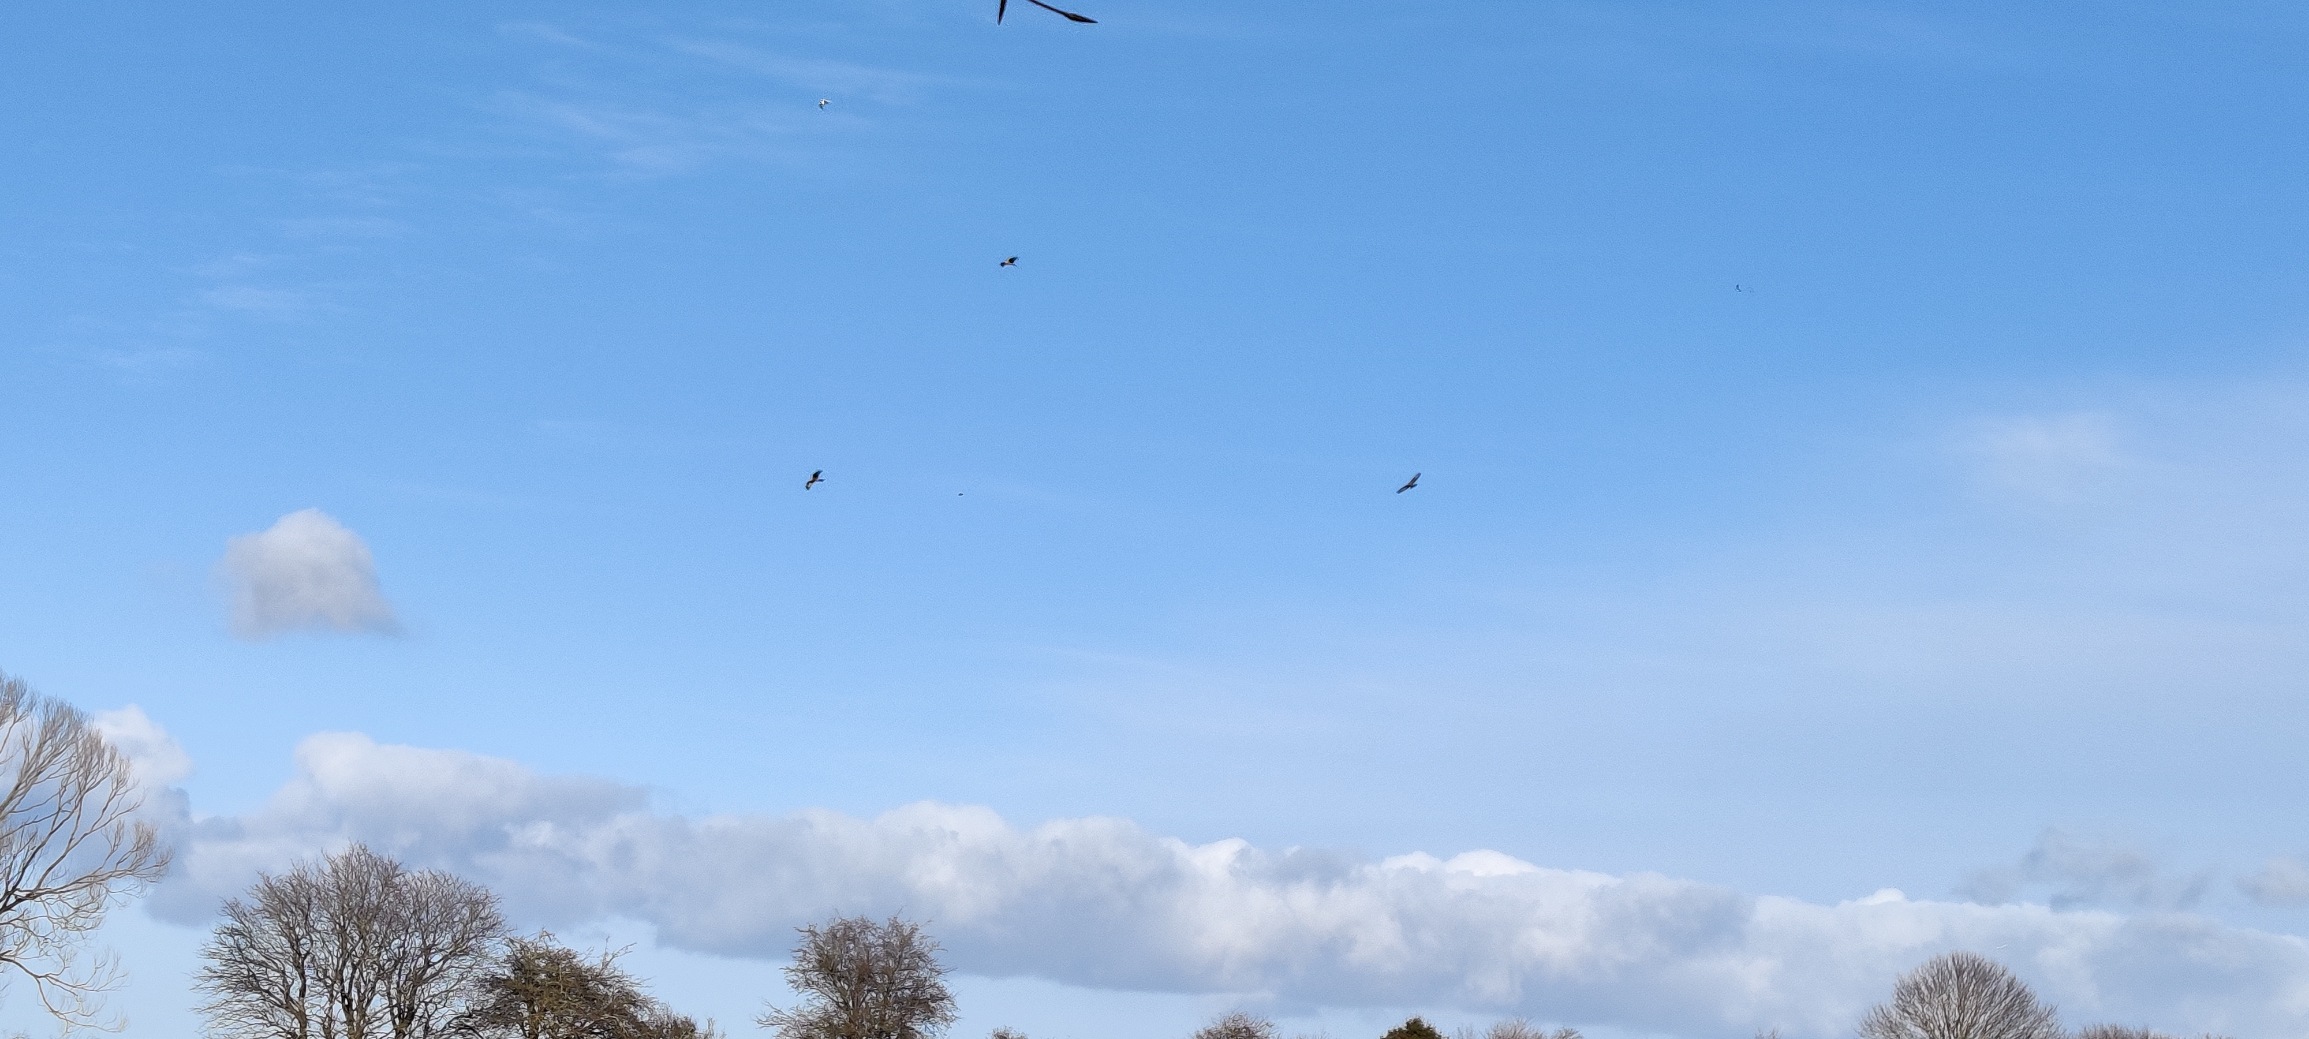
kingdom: Animalia
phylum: Chordata
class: Aves
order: Accipitriformes
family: Accipitridae
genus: Milvus
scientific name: Milvus milvus
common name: Rød glente
